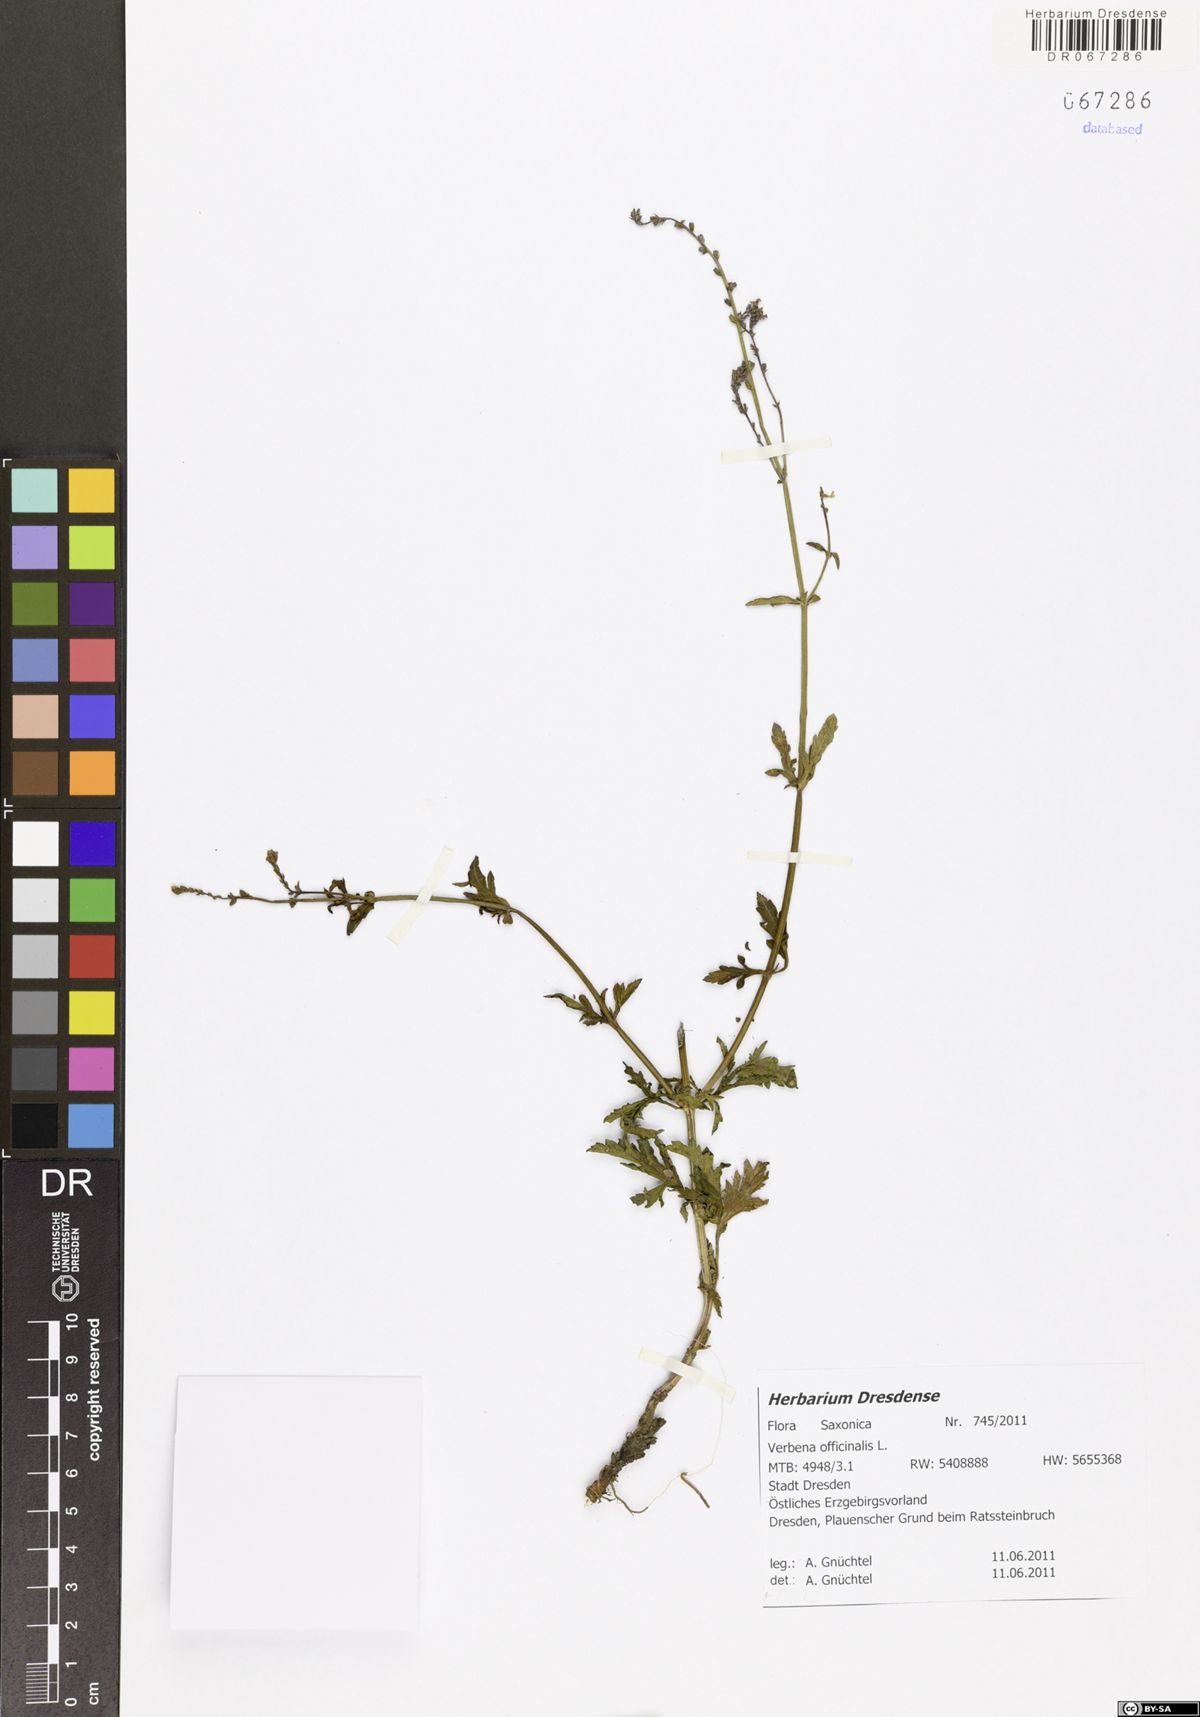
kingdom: Plantae
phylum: Tracheophyta
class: Magnoliopsida
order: Lamiales
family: Verbenaceae
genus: Verbena
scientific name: Verbena officinalis
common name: Vervain
